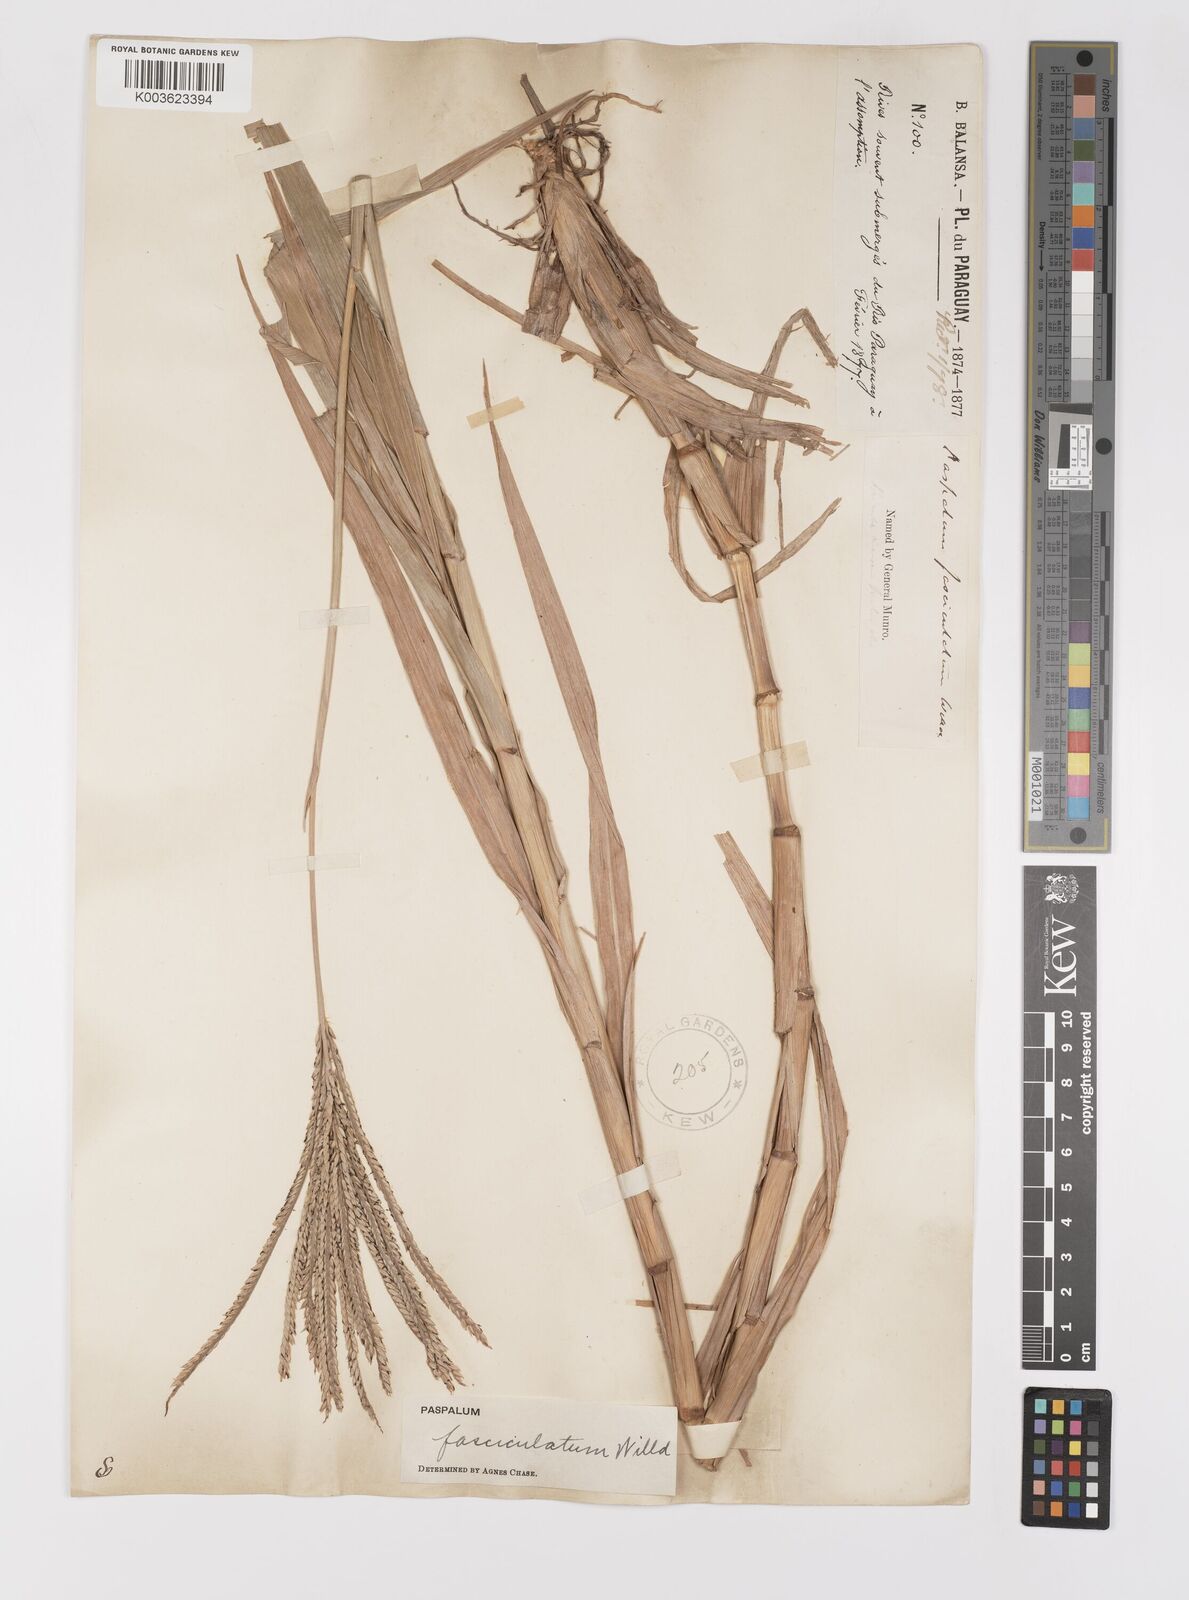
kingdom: Plantae
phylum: Tracheophyta
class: Liliopsida
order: Poales
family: Poaceae
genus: Paspalum
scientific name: Paspalum fasciculatum
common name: Bamboo grass
